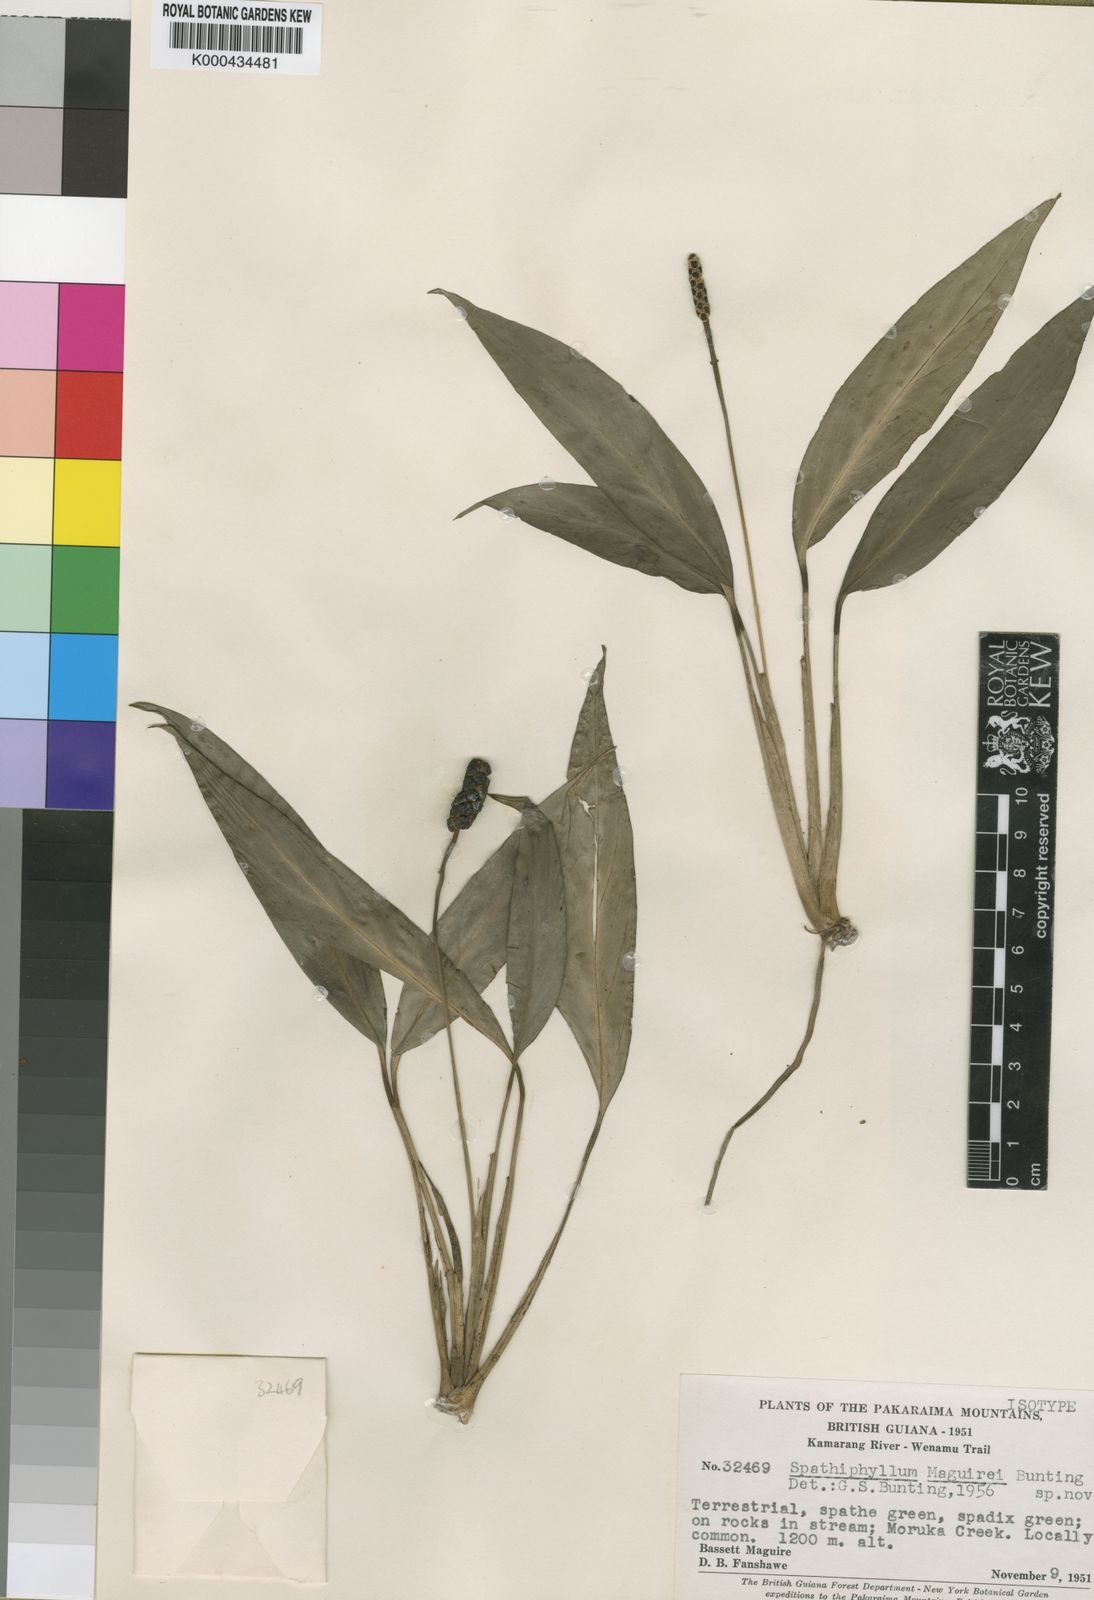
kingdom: Plantae
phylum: Tracheophyta
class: Liliopsida
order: Alismatales
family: Araceae
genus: Spathiphyllum
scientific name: Spathiphyllum maguirei
